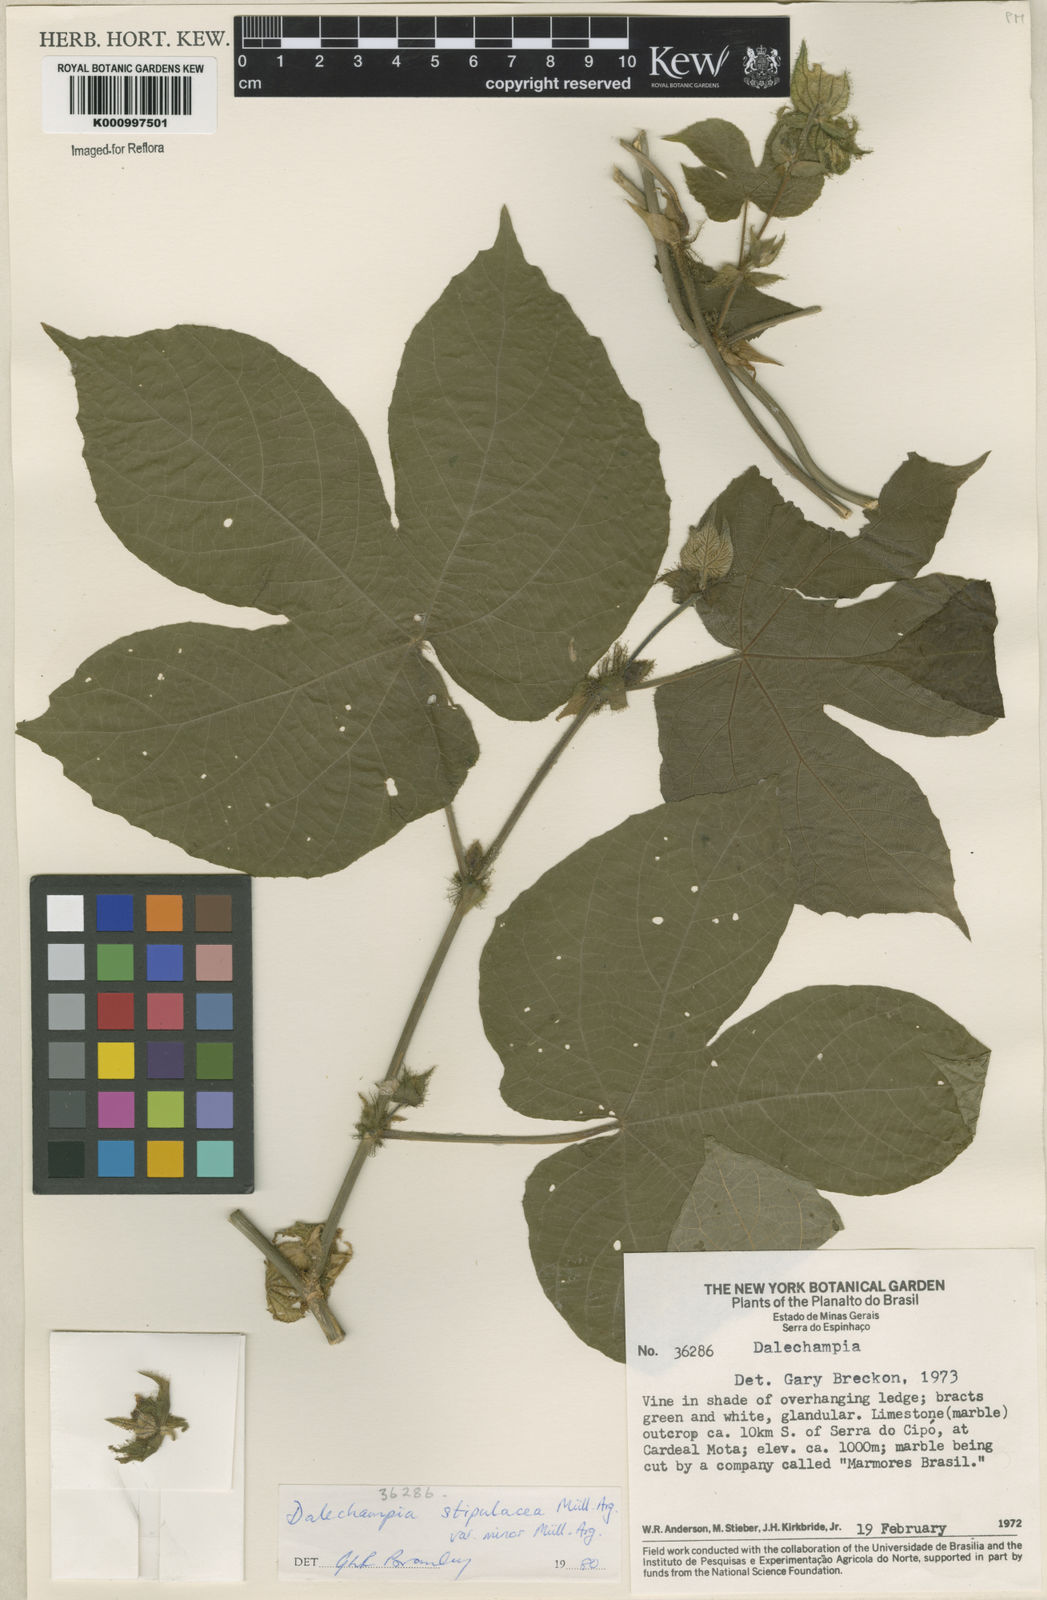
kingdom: Plantae
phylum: Tracheophyta
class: Magnoliopsida
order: Malpighiales
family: Euphorbiaceae
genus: Dalechampia
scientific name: Dalechampia
